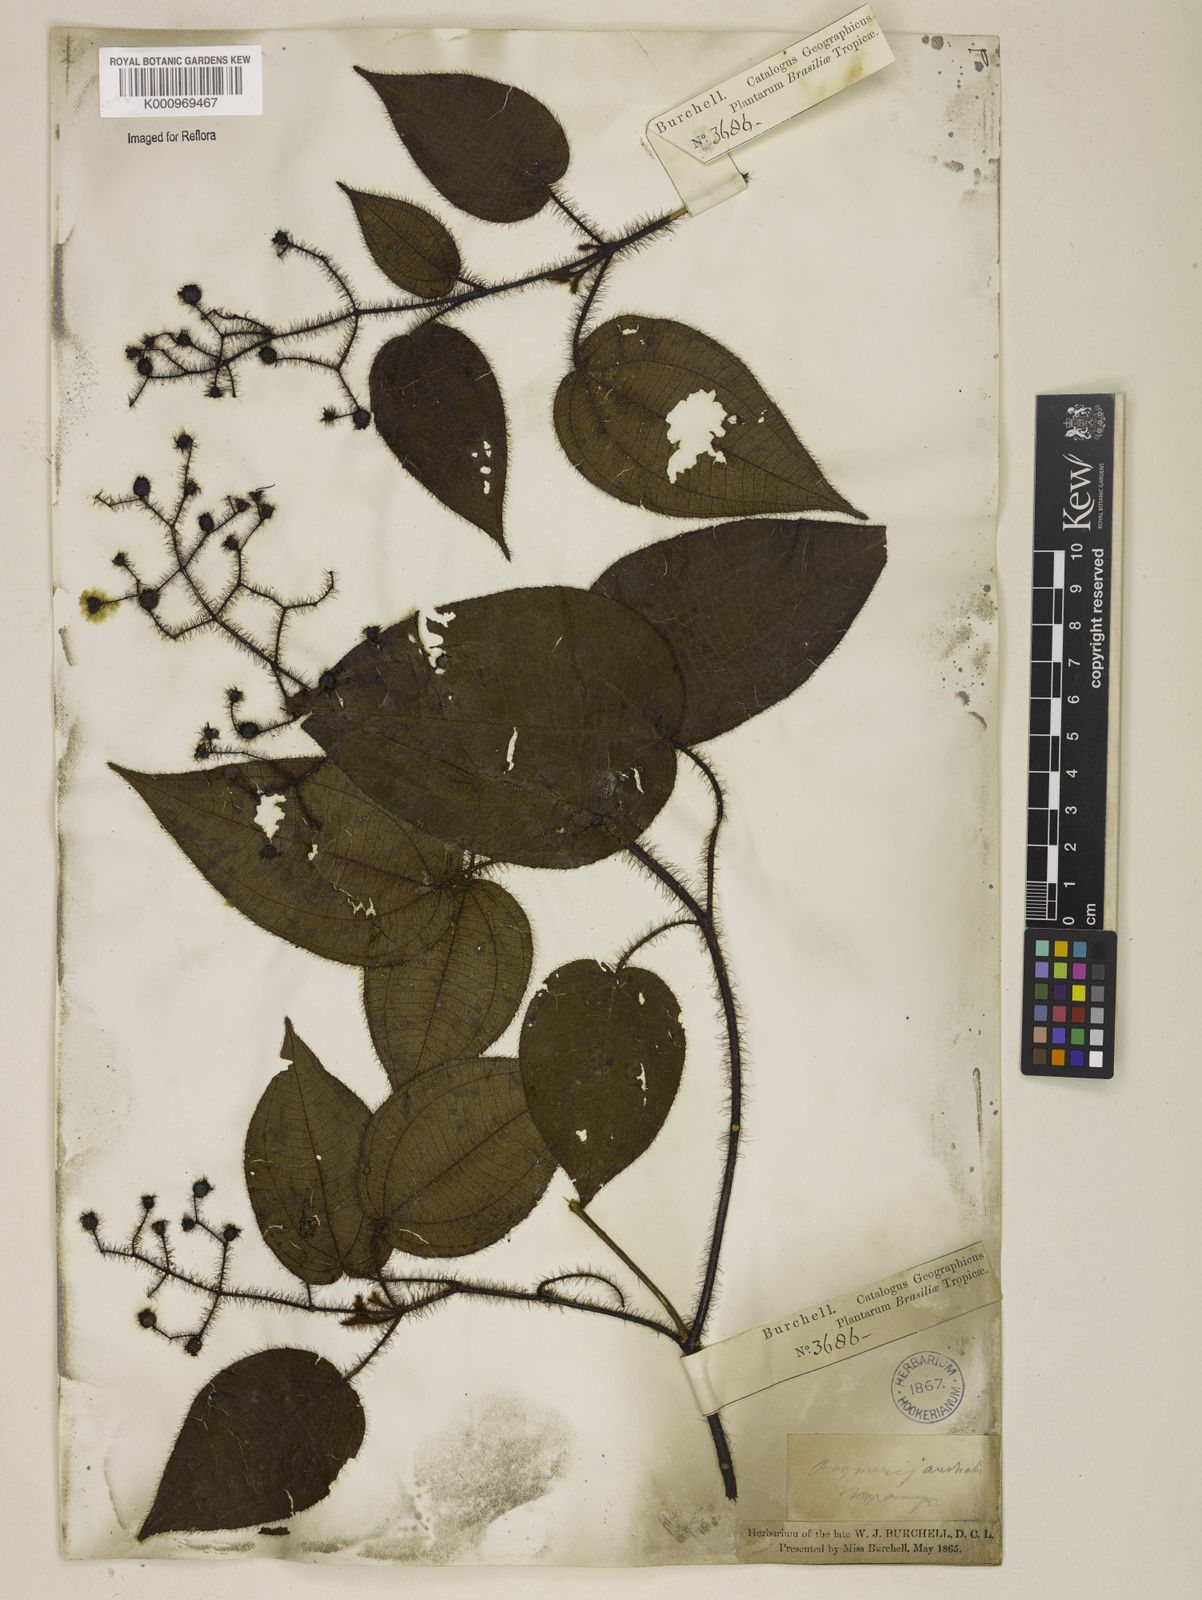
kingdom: Plantae
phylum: Tracheophyta
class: Magnoliopsida
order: Myrtales
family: Melastomataceae
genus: Miconia
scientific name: Miconia australis
